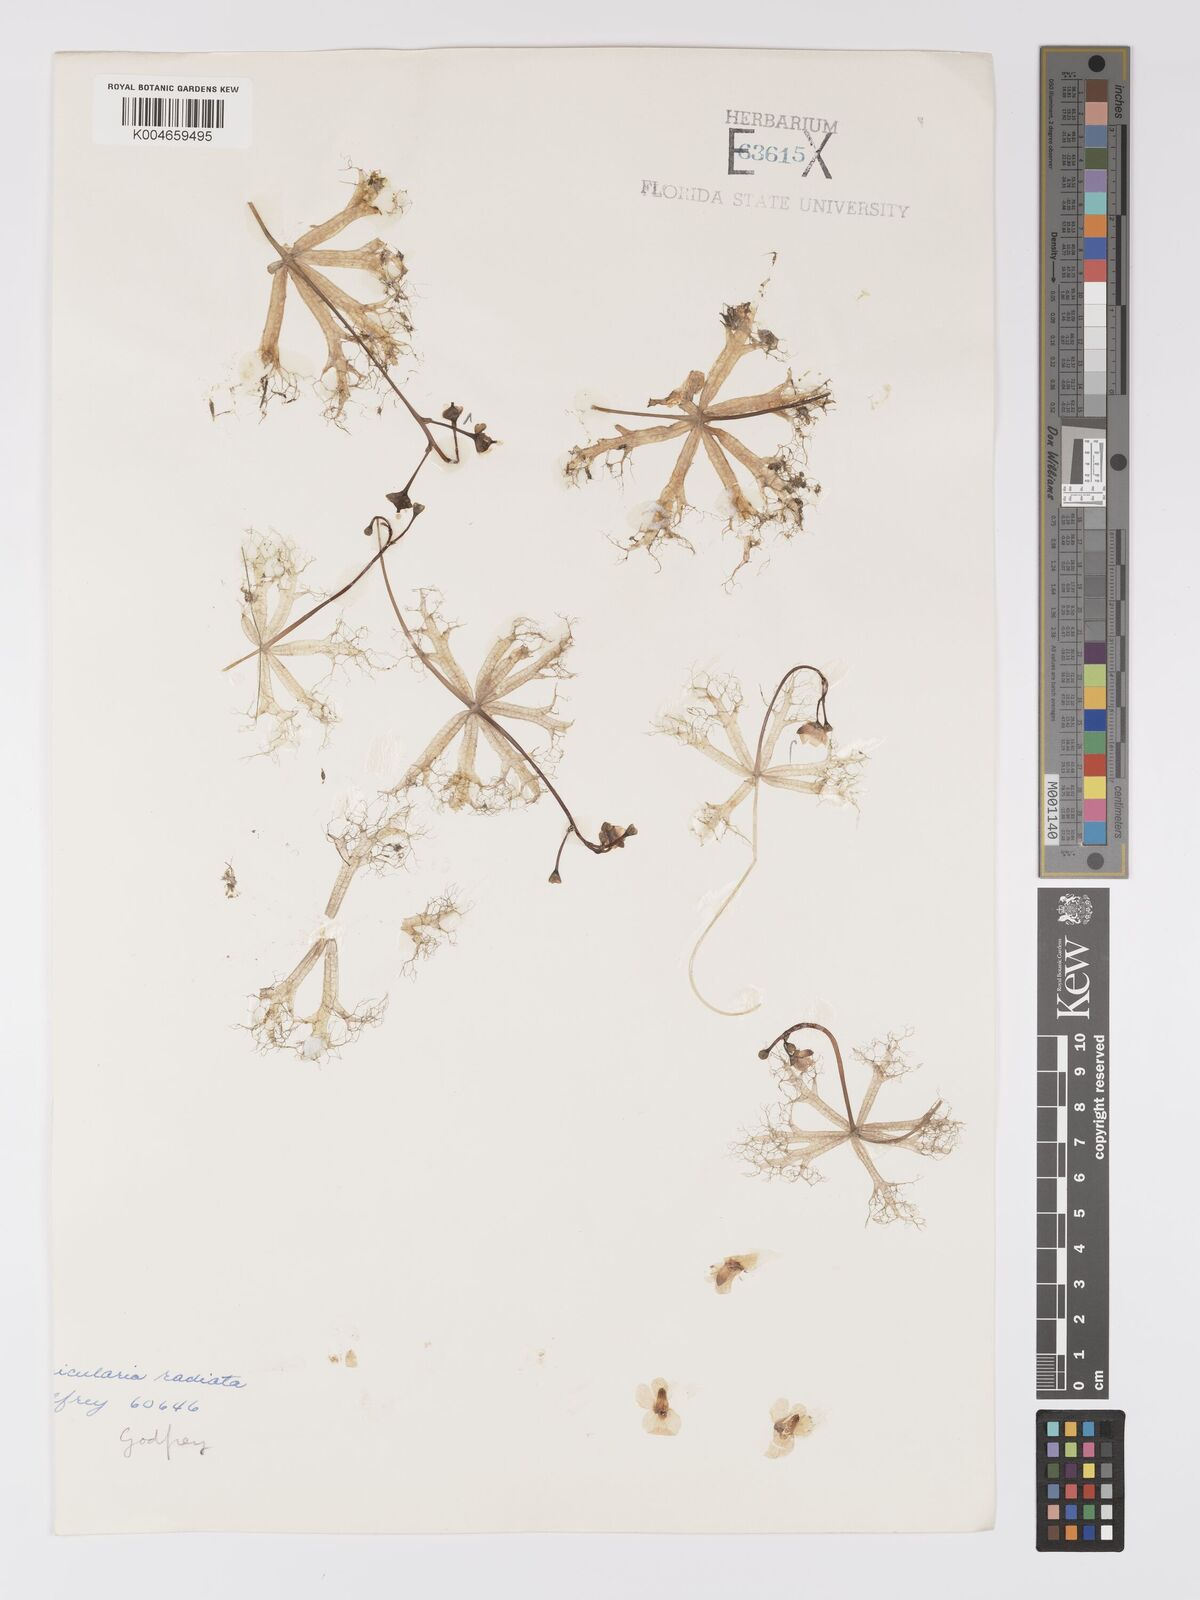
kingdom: Plantae
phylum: Tracheophyta
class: Magnoliopsida
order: Lamiales
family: Lentibulariaceae
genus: Utricularia
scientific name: Utricularia radiata
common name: Floating bladderwort
